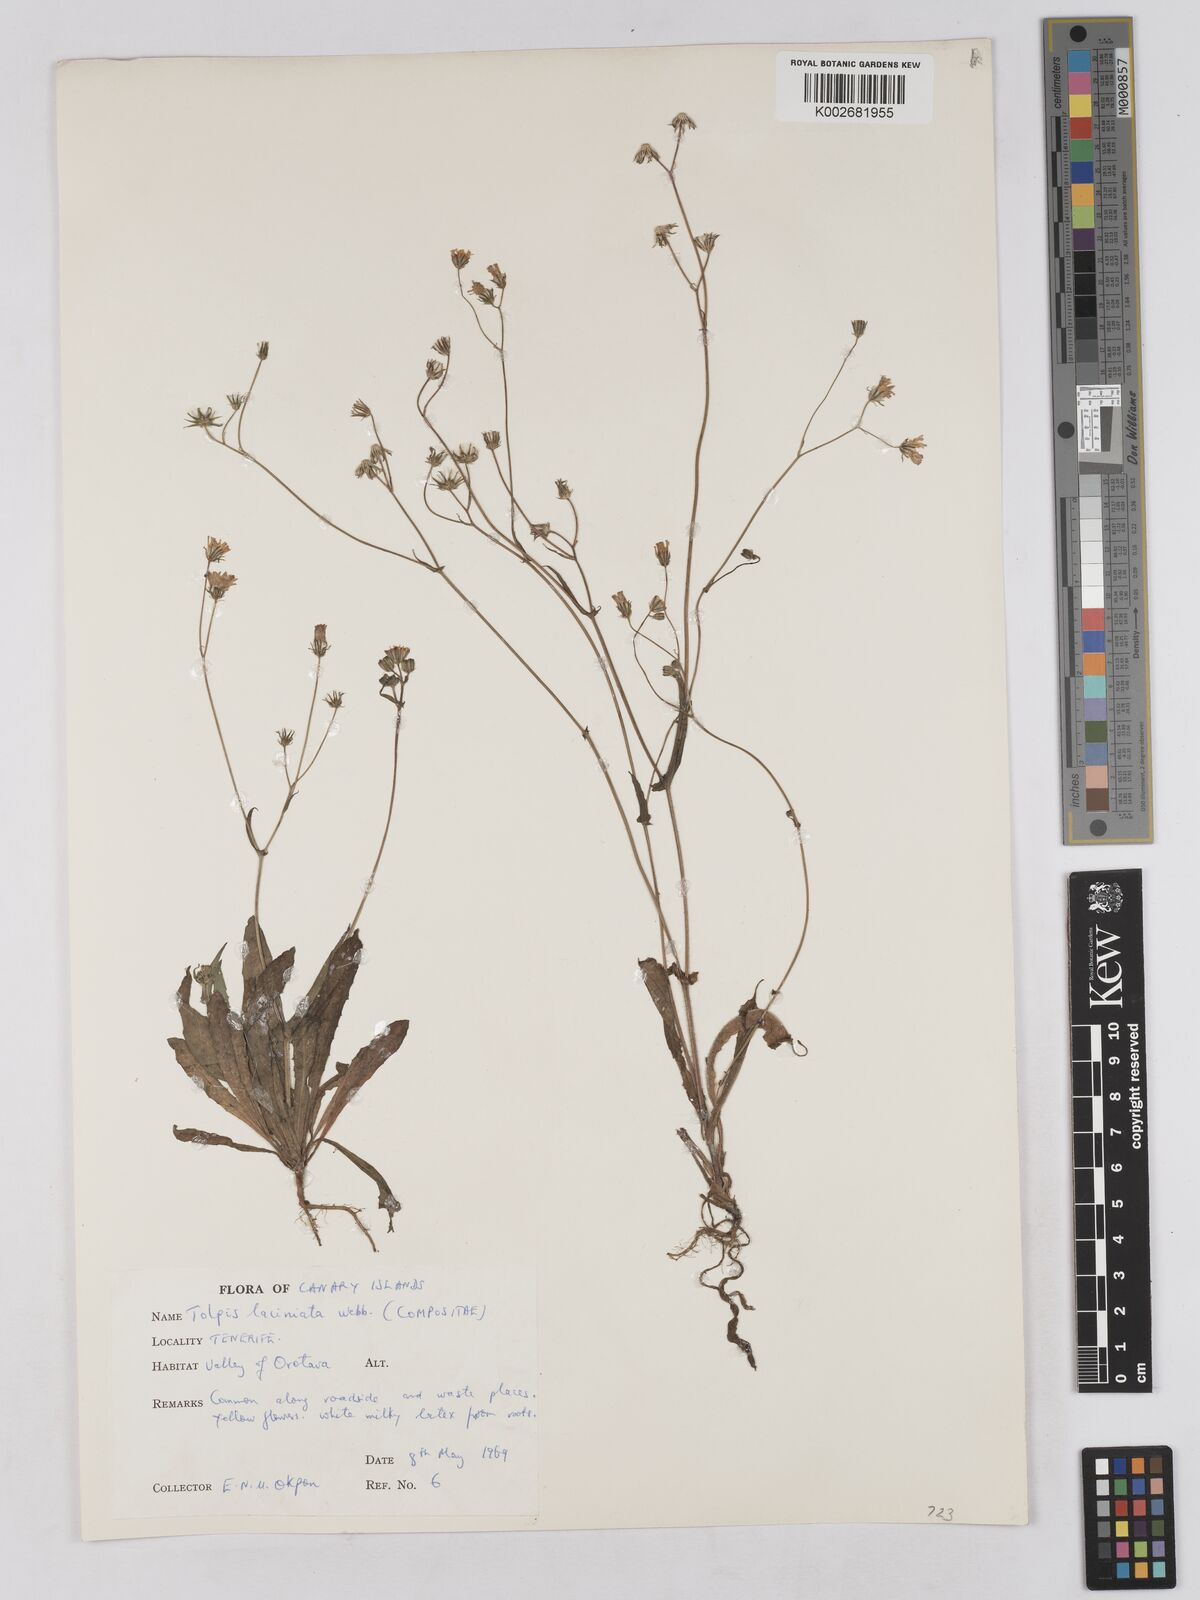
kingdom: Plantae
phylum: Tracheophyta
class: Magnoliopsida
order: Asterales
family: Asteraceae
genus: Tolpis
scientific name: Tolpis
